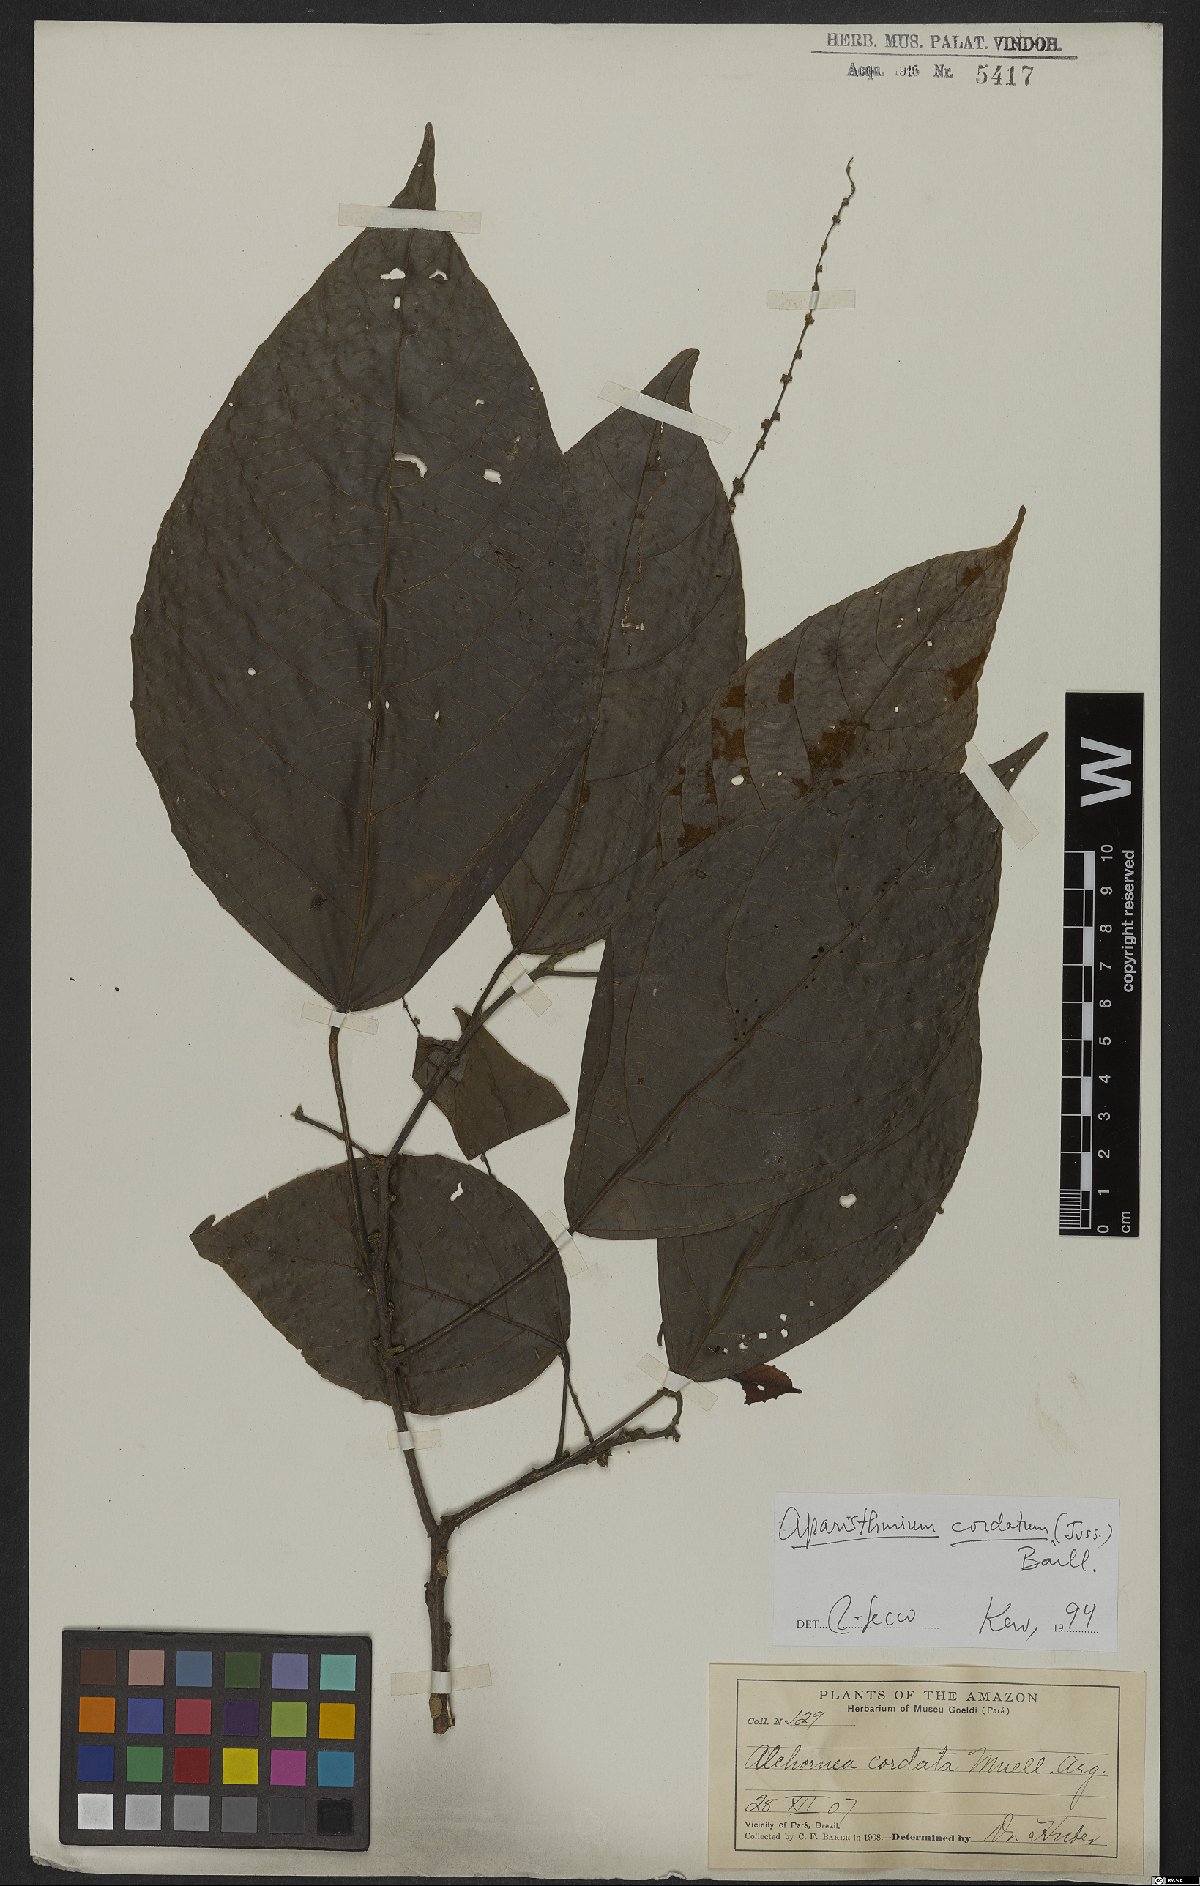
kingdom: Plantae
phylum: Tracheophyta
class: Magnoliopsida
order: Malpighiales
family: Euphorbiaceae
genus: Aparisthmium
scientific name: Aparisthmium cordatum
